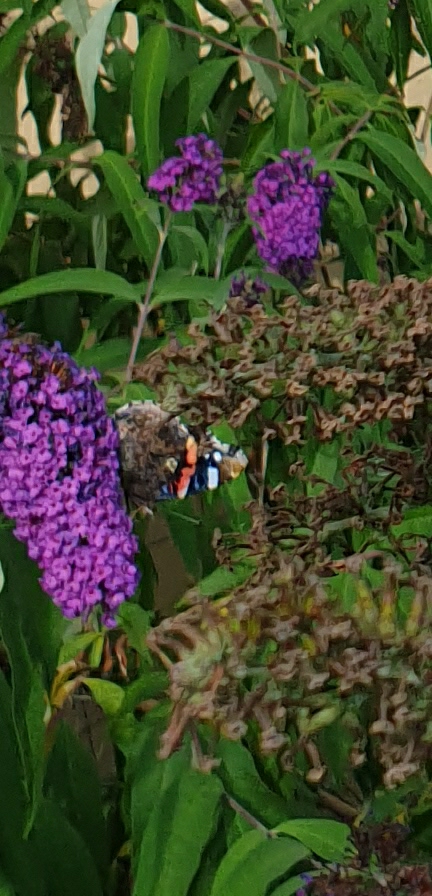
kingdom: Animalia
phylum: Arthropoda
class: Insecta
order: Lepidoptera
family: Nymphalidae
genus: Vanessa
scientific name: Vanessa atalanta
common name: Admiral
